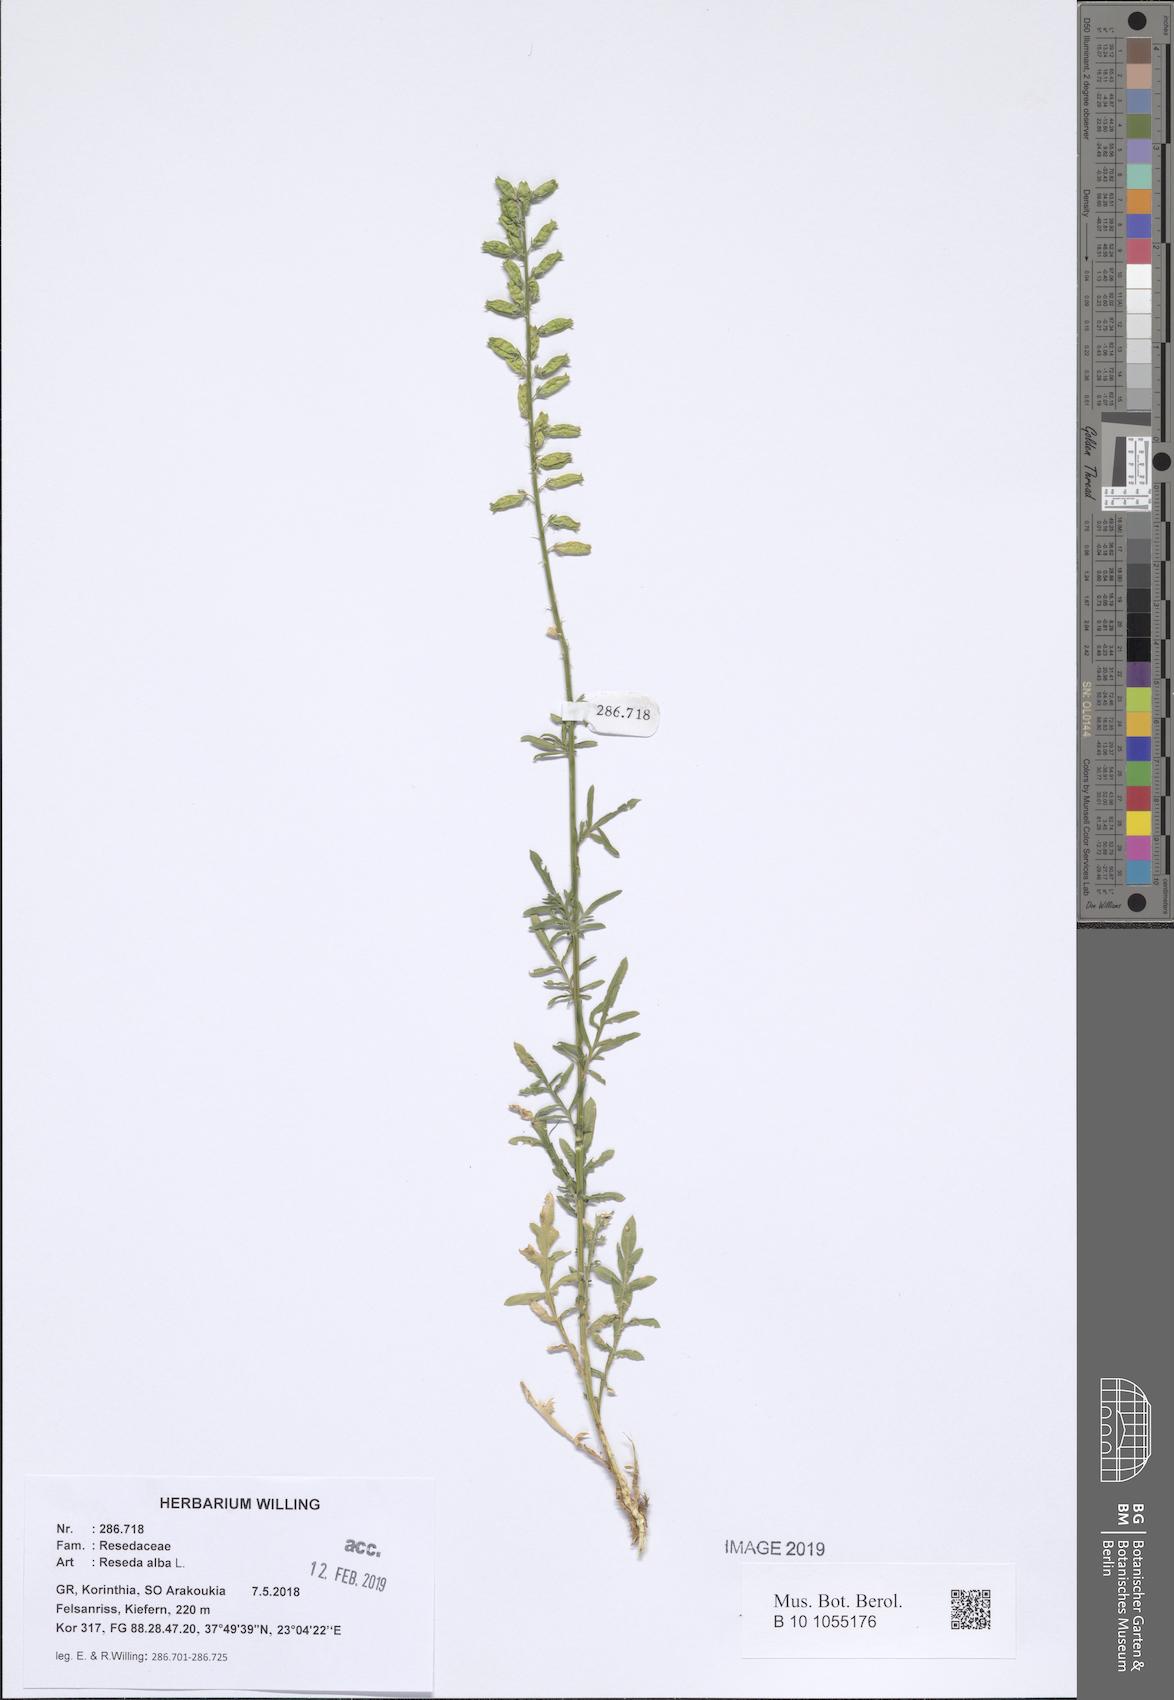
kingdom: Plantae
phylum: Tracheophyta
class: Magnoliopsida
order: Brassicales
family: Resedaceae
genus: Reseda
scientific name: Reseda alba
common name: White mignonette
